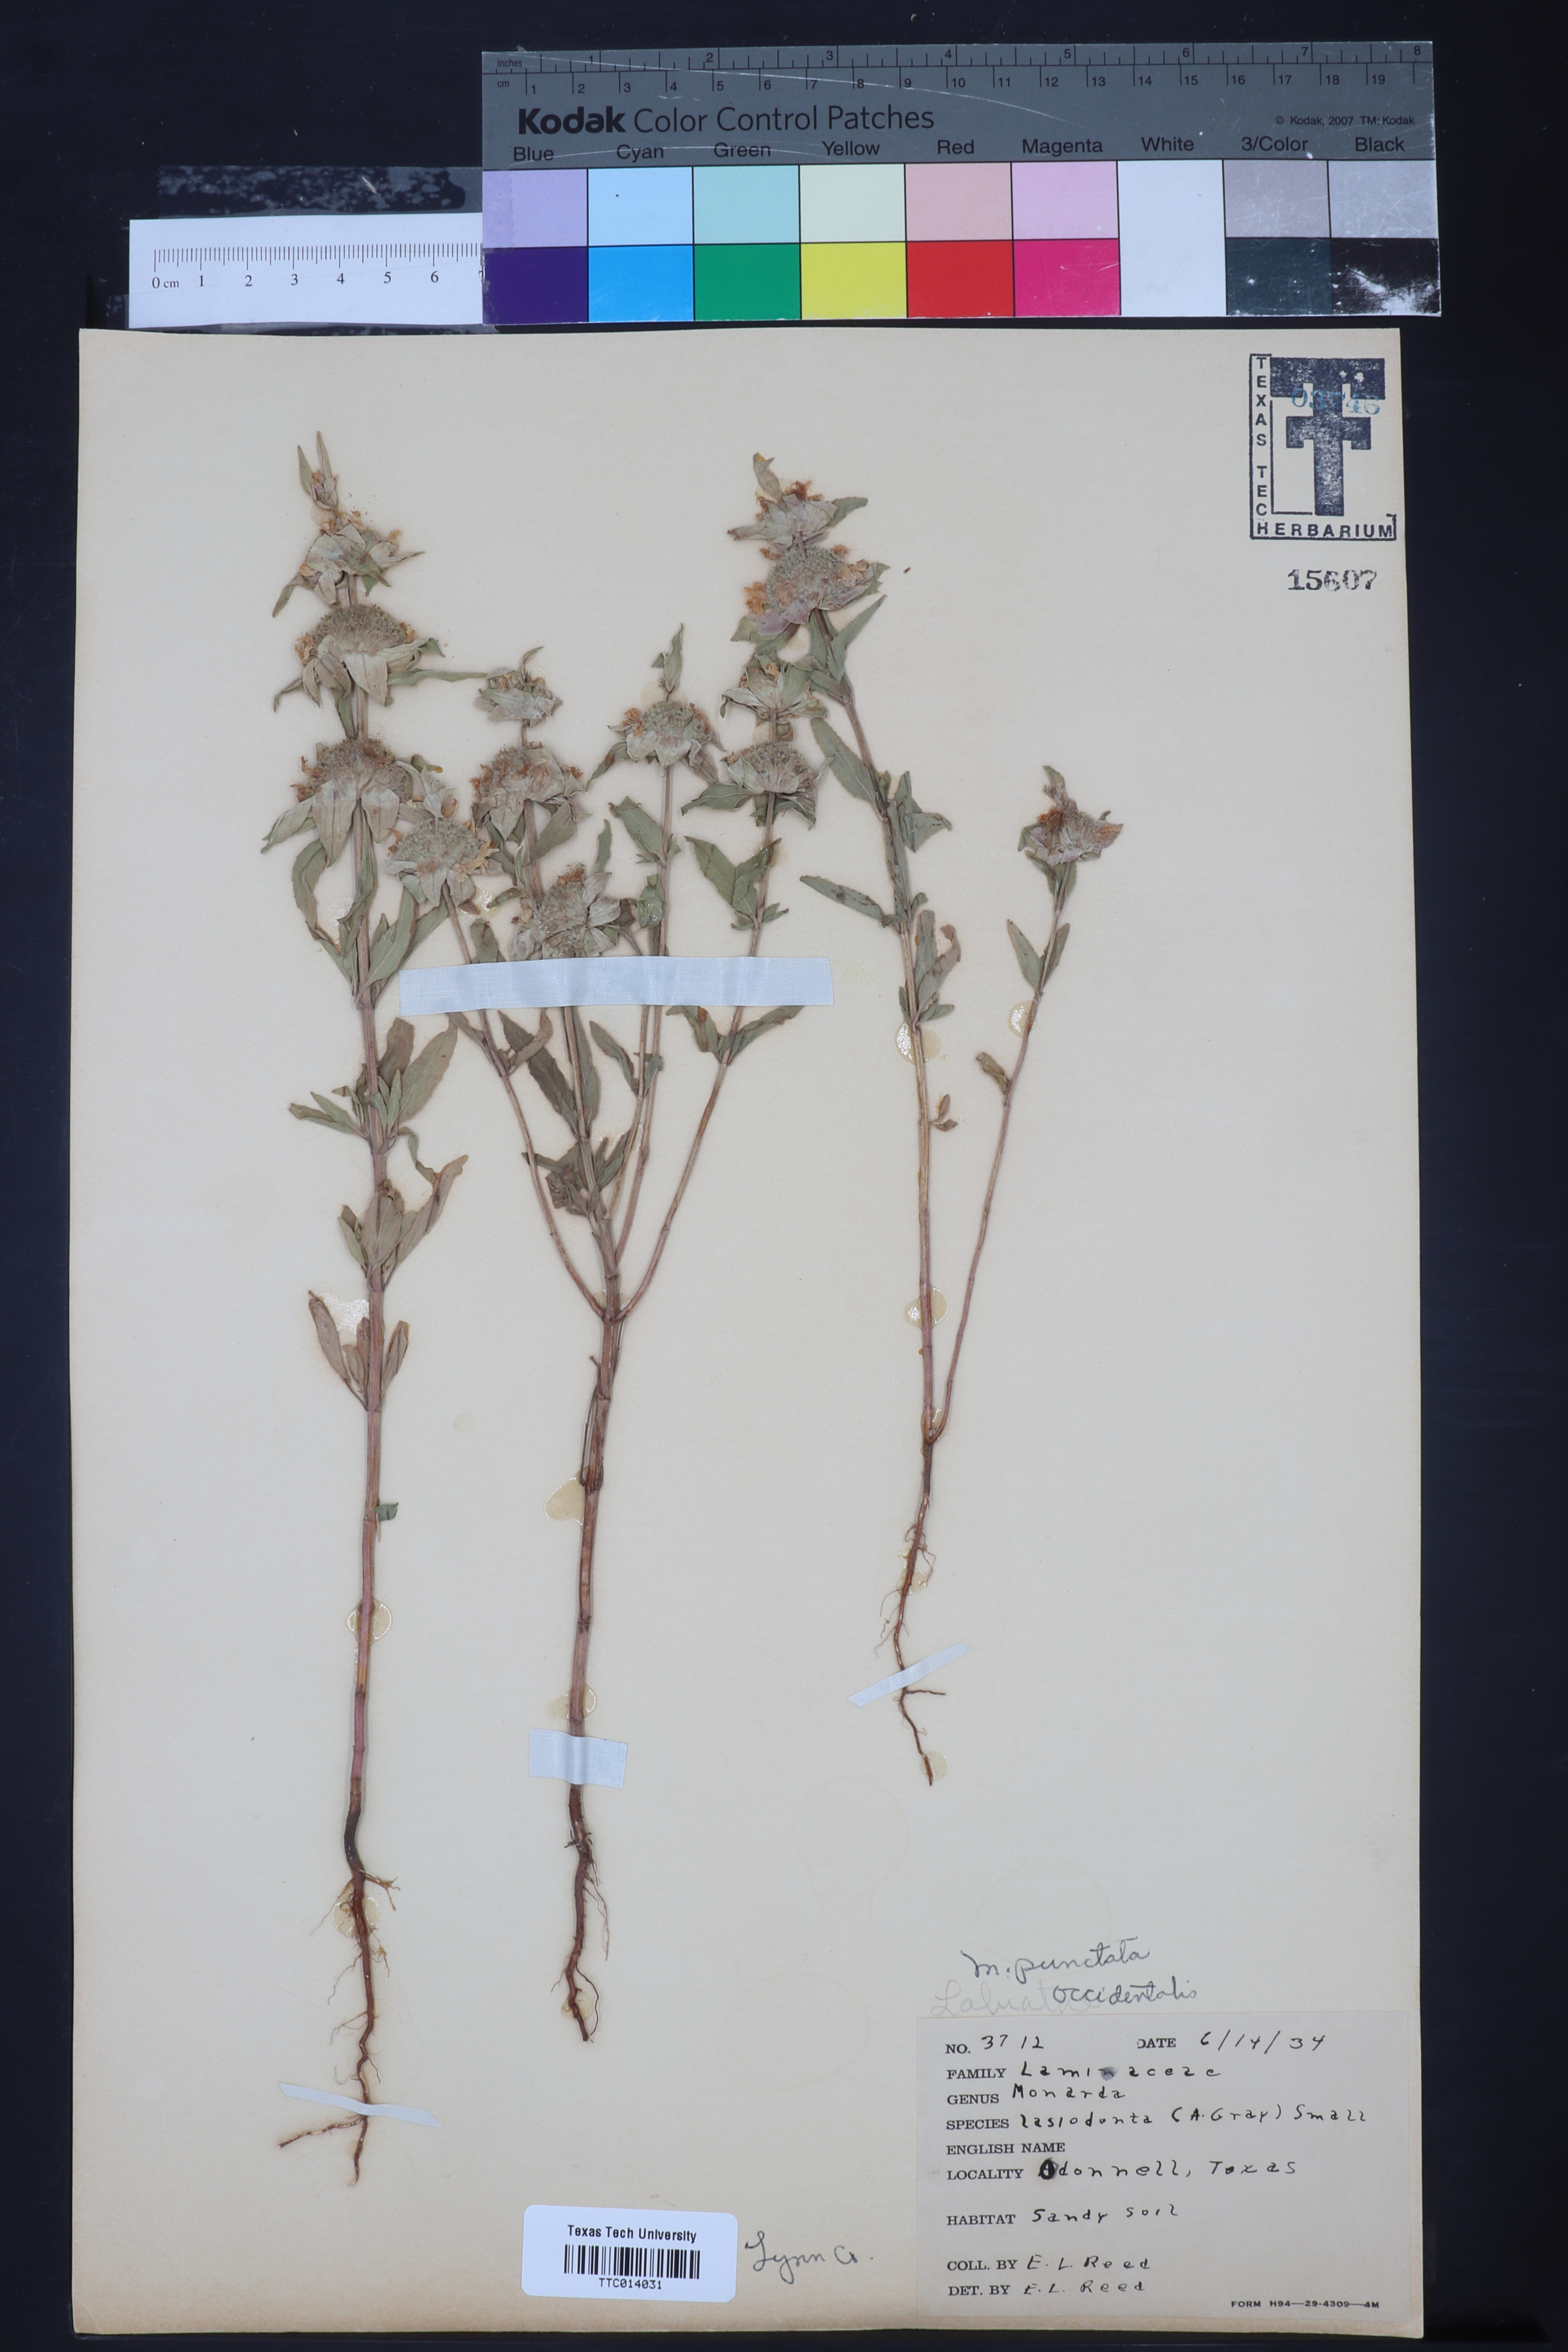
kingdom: Plantae
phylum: Tracheophyta
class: Magnoliopsida
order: Lamiales
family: Lamiaceae
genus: Monarda
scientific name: Monarda punctata
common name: Dotted monarda
